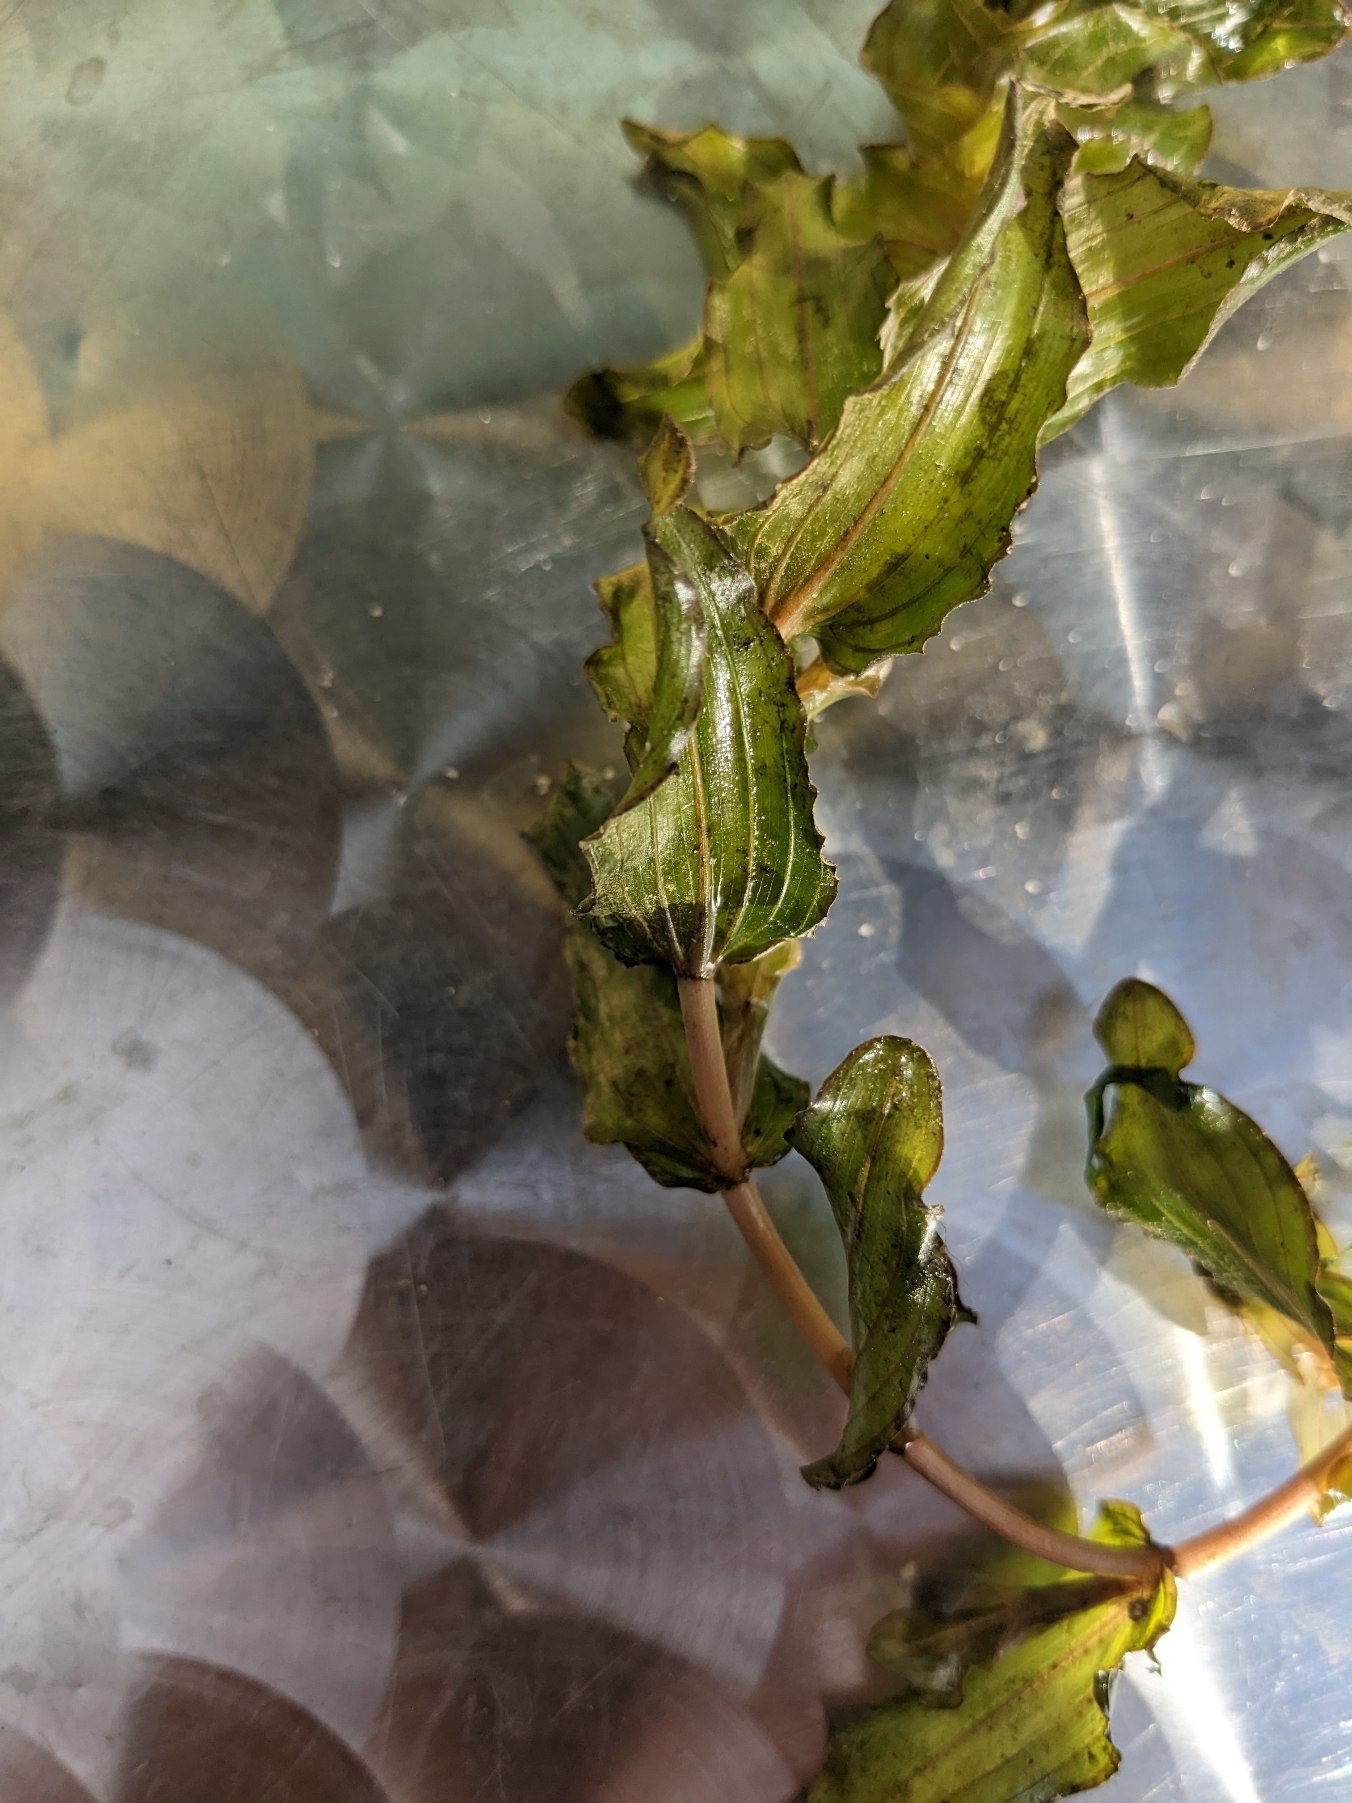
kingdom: Plantae
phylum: Tracheophyta
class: Liliopsida
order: Alismatales
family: Potamogetonaceae
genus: Potamogeton
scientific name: Potamogeton perfoliatus
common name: Hjertebladet vandaks
